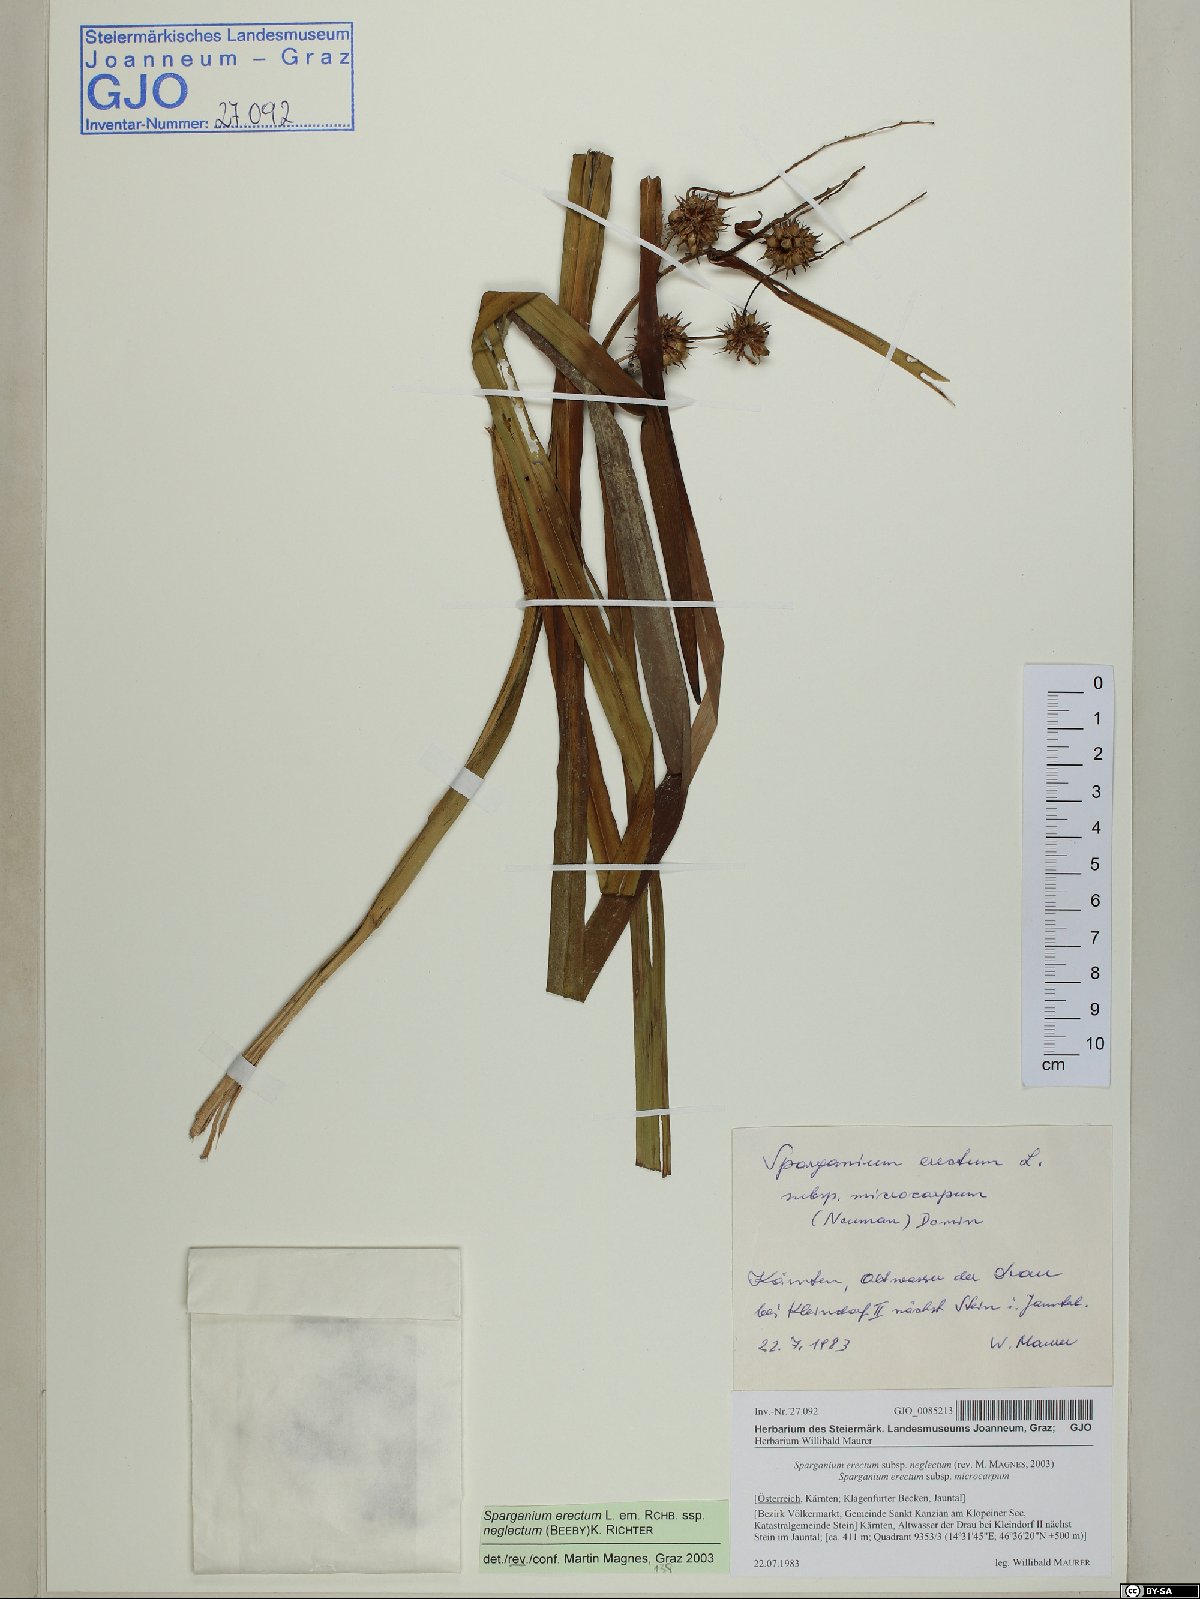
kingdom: Plantae
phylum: Tracheophyta
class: Liliopsida
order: Poales
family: Typhaceae
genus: Sparganium
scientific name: Sparganium erectum
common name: Branched bur-reed
